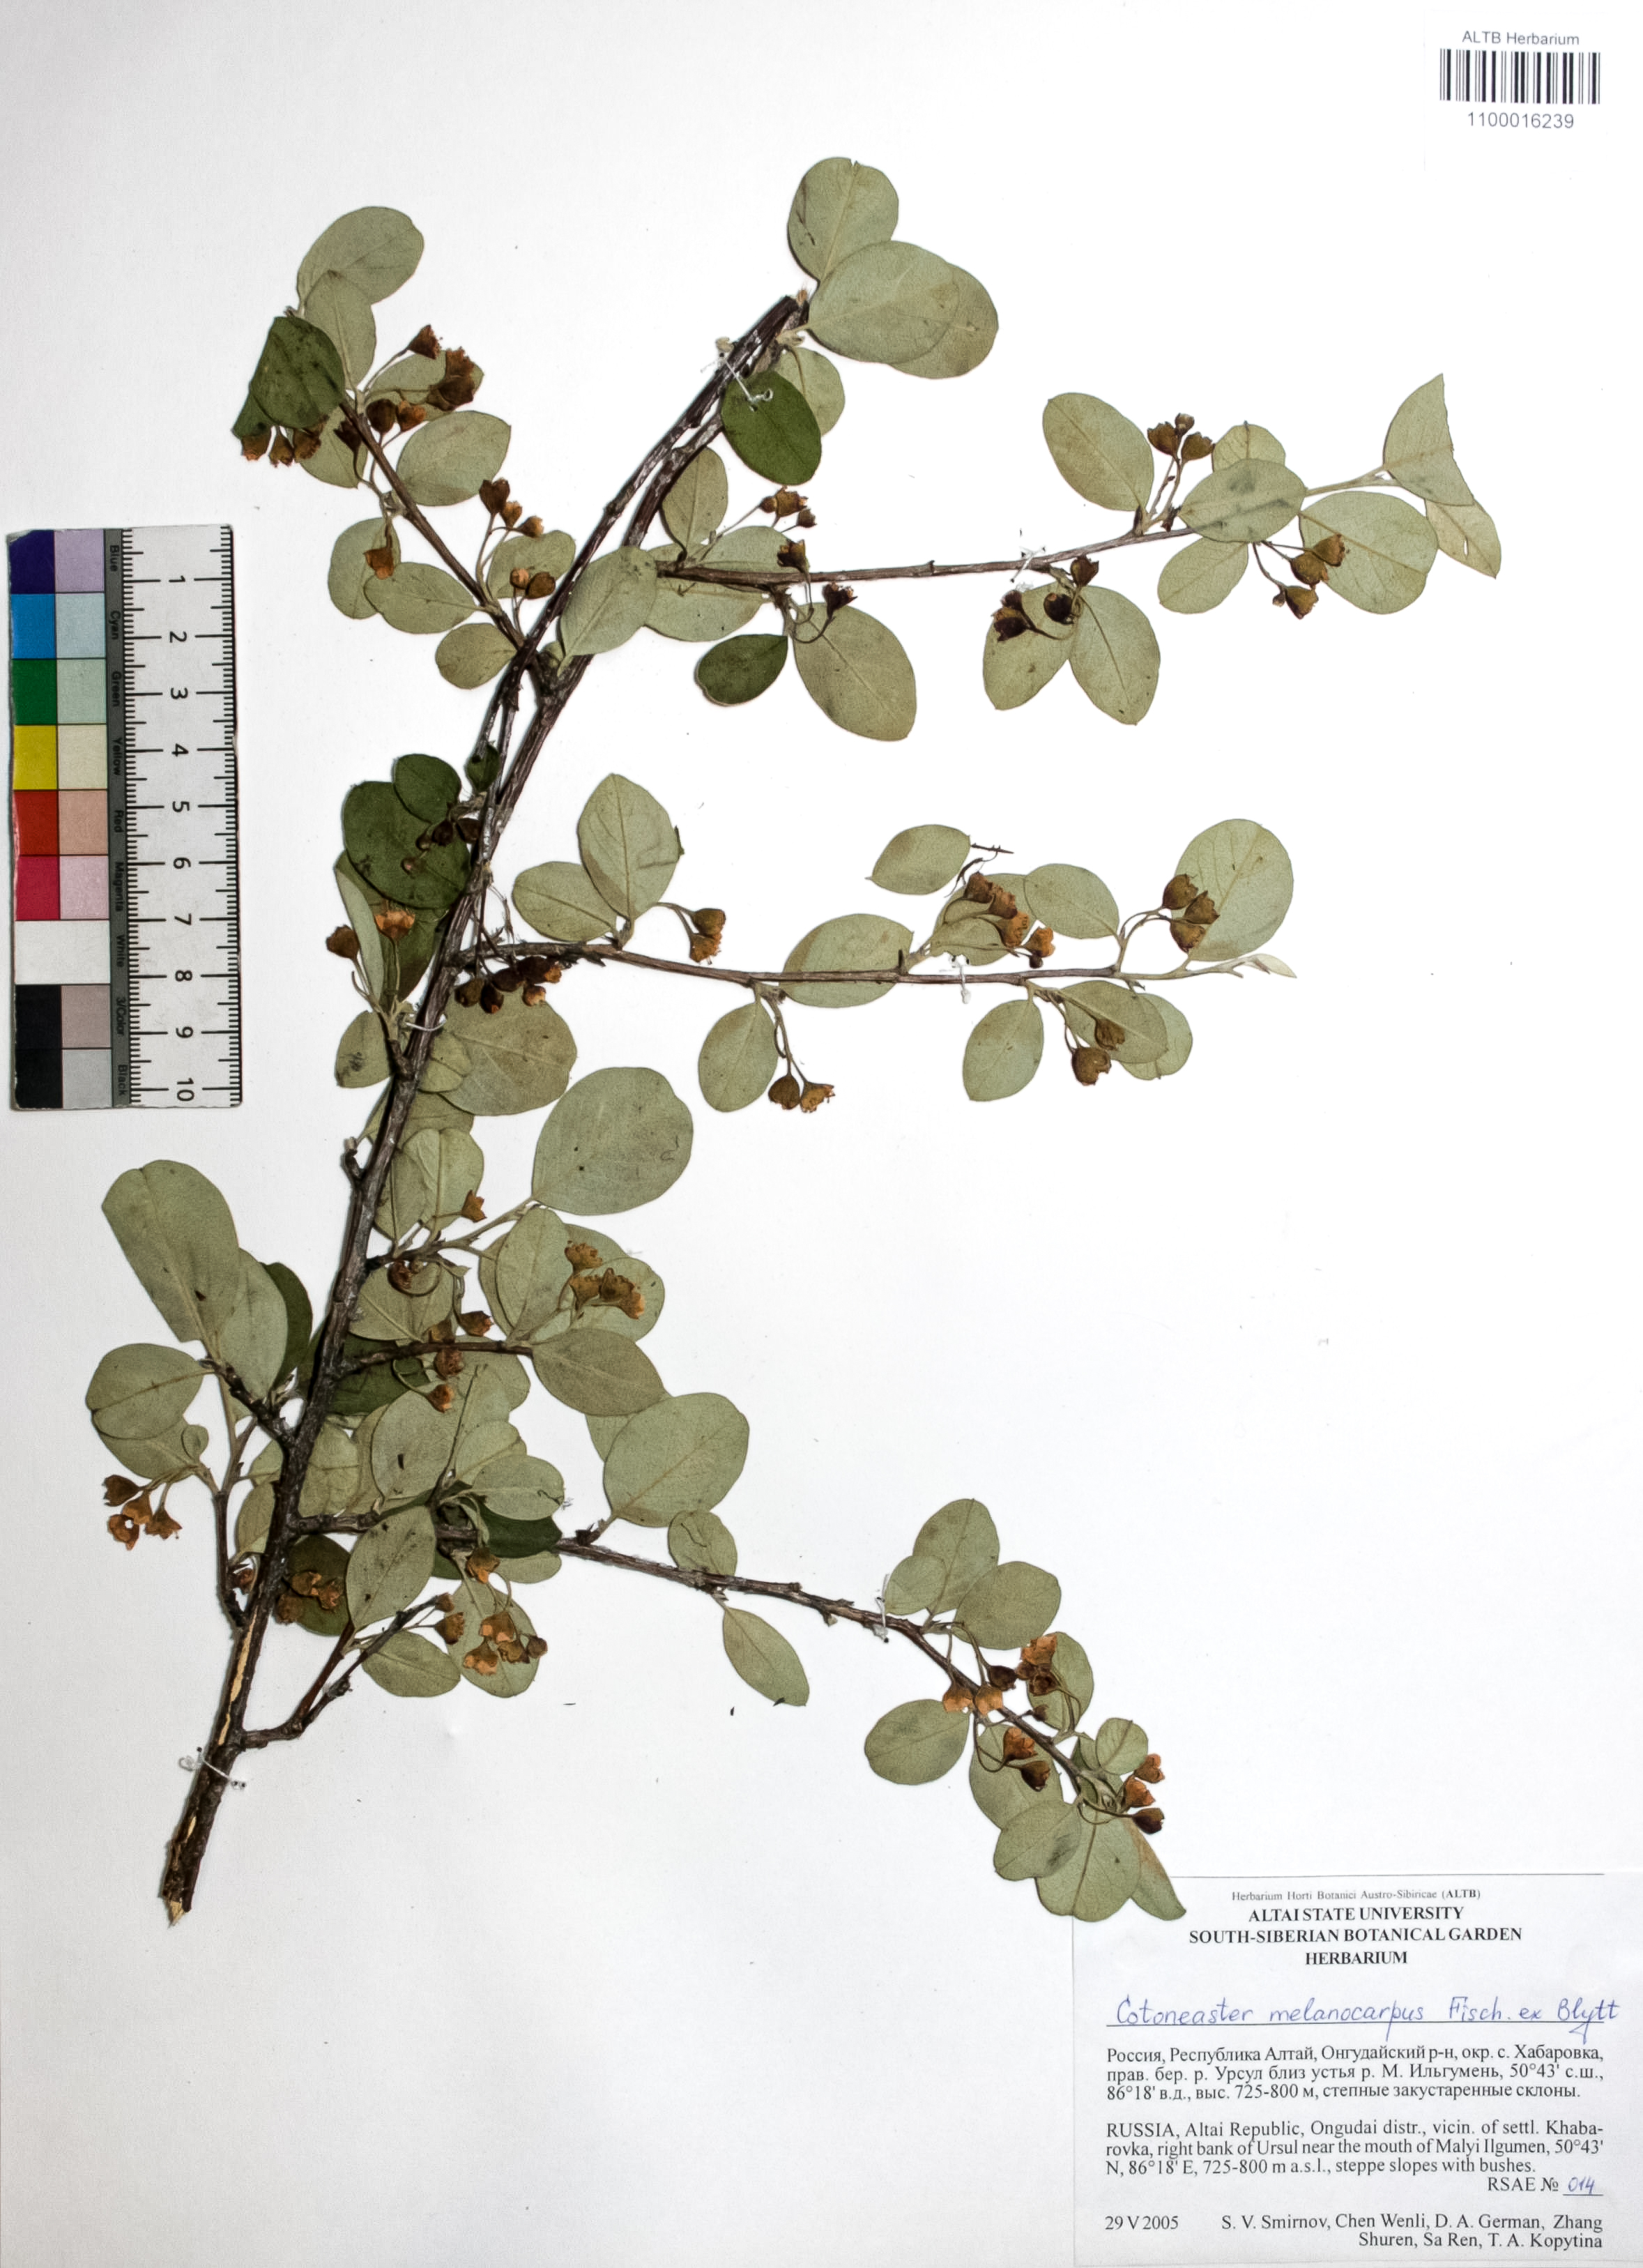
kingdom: Plantae
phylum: Tracheophyta
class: Magnoliopsida
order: Rosales
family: Rosaceae
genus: Cotoneaster
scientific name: Cotoneaster niger
